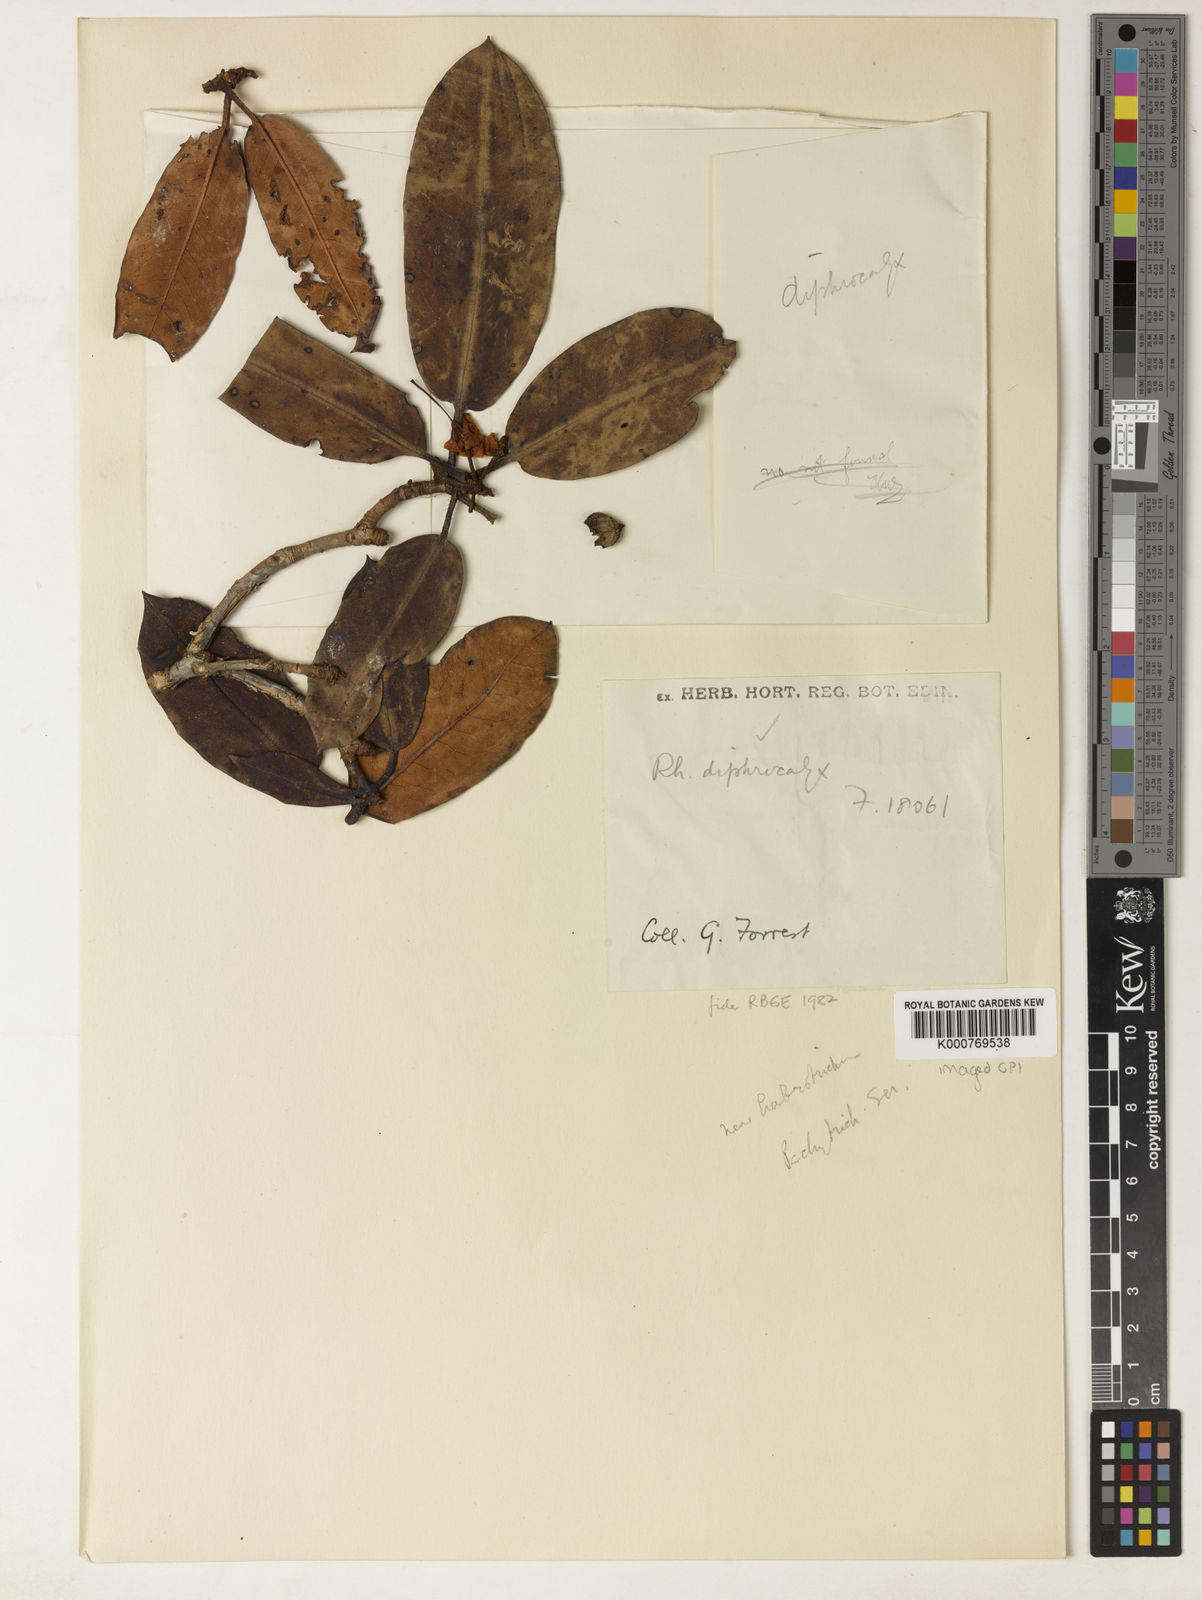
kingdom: Plantae
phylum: Tracheophyta
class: Magnoliopsida
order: Ericales
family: Ericaceae
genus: Rhododendron
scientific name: Rhododendron diphrocalyx
